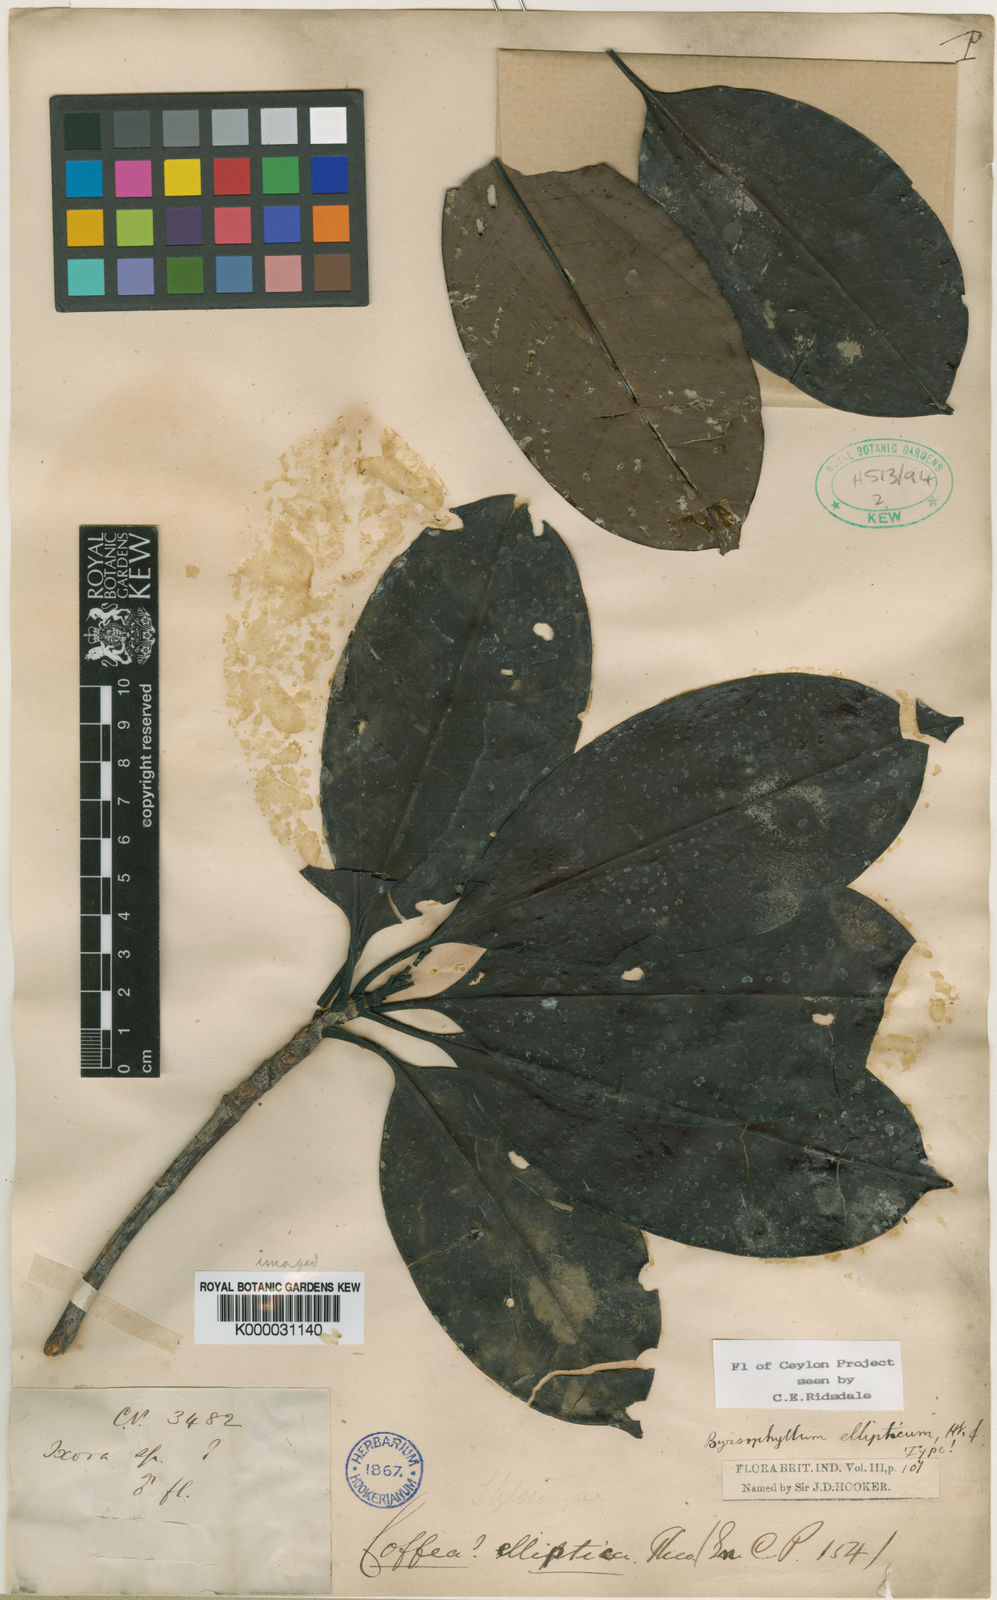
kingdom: Plantae
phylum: Tracheophyta
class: Magnoliopsida
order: Gentianales
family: Rubiaceae
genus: Byrsophyllum
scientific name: Byrsophyllum
